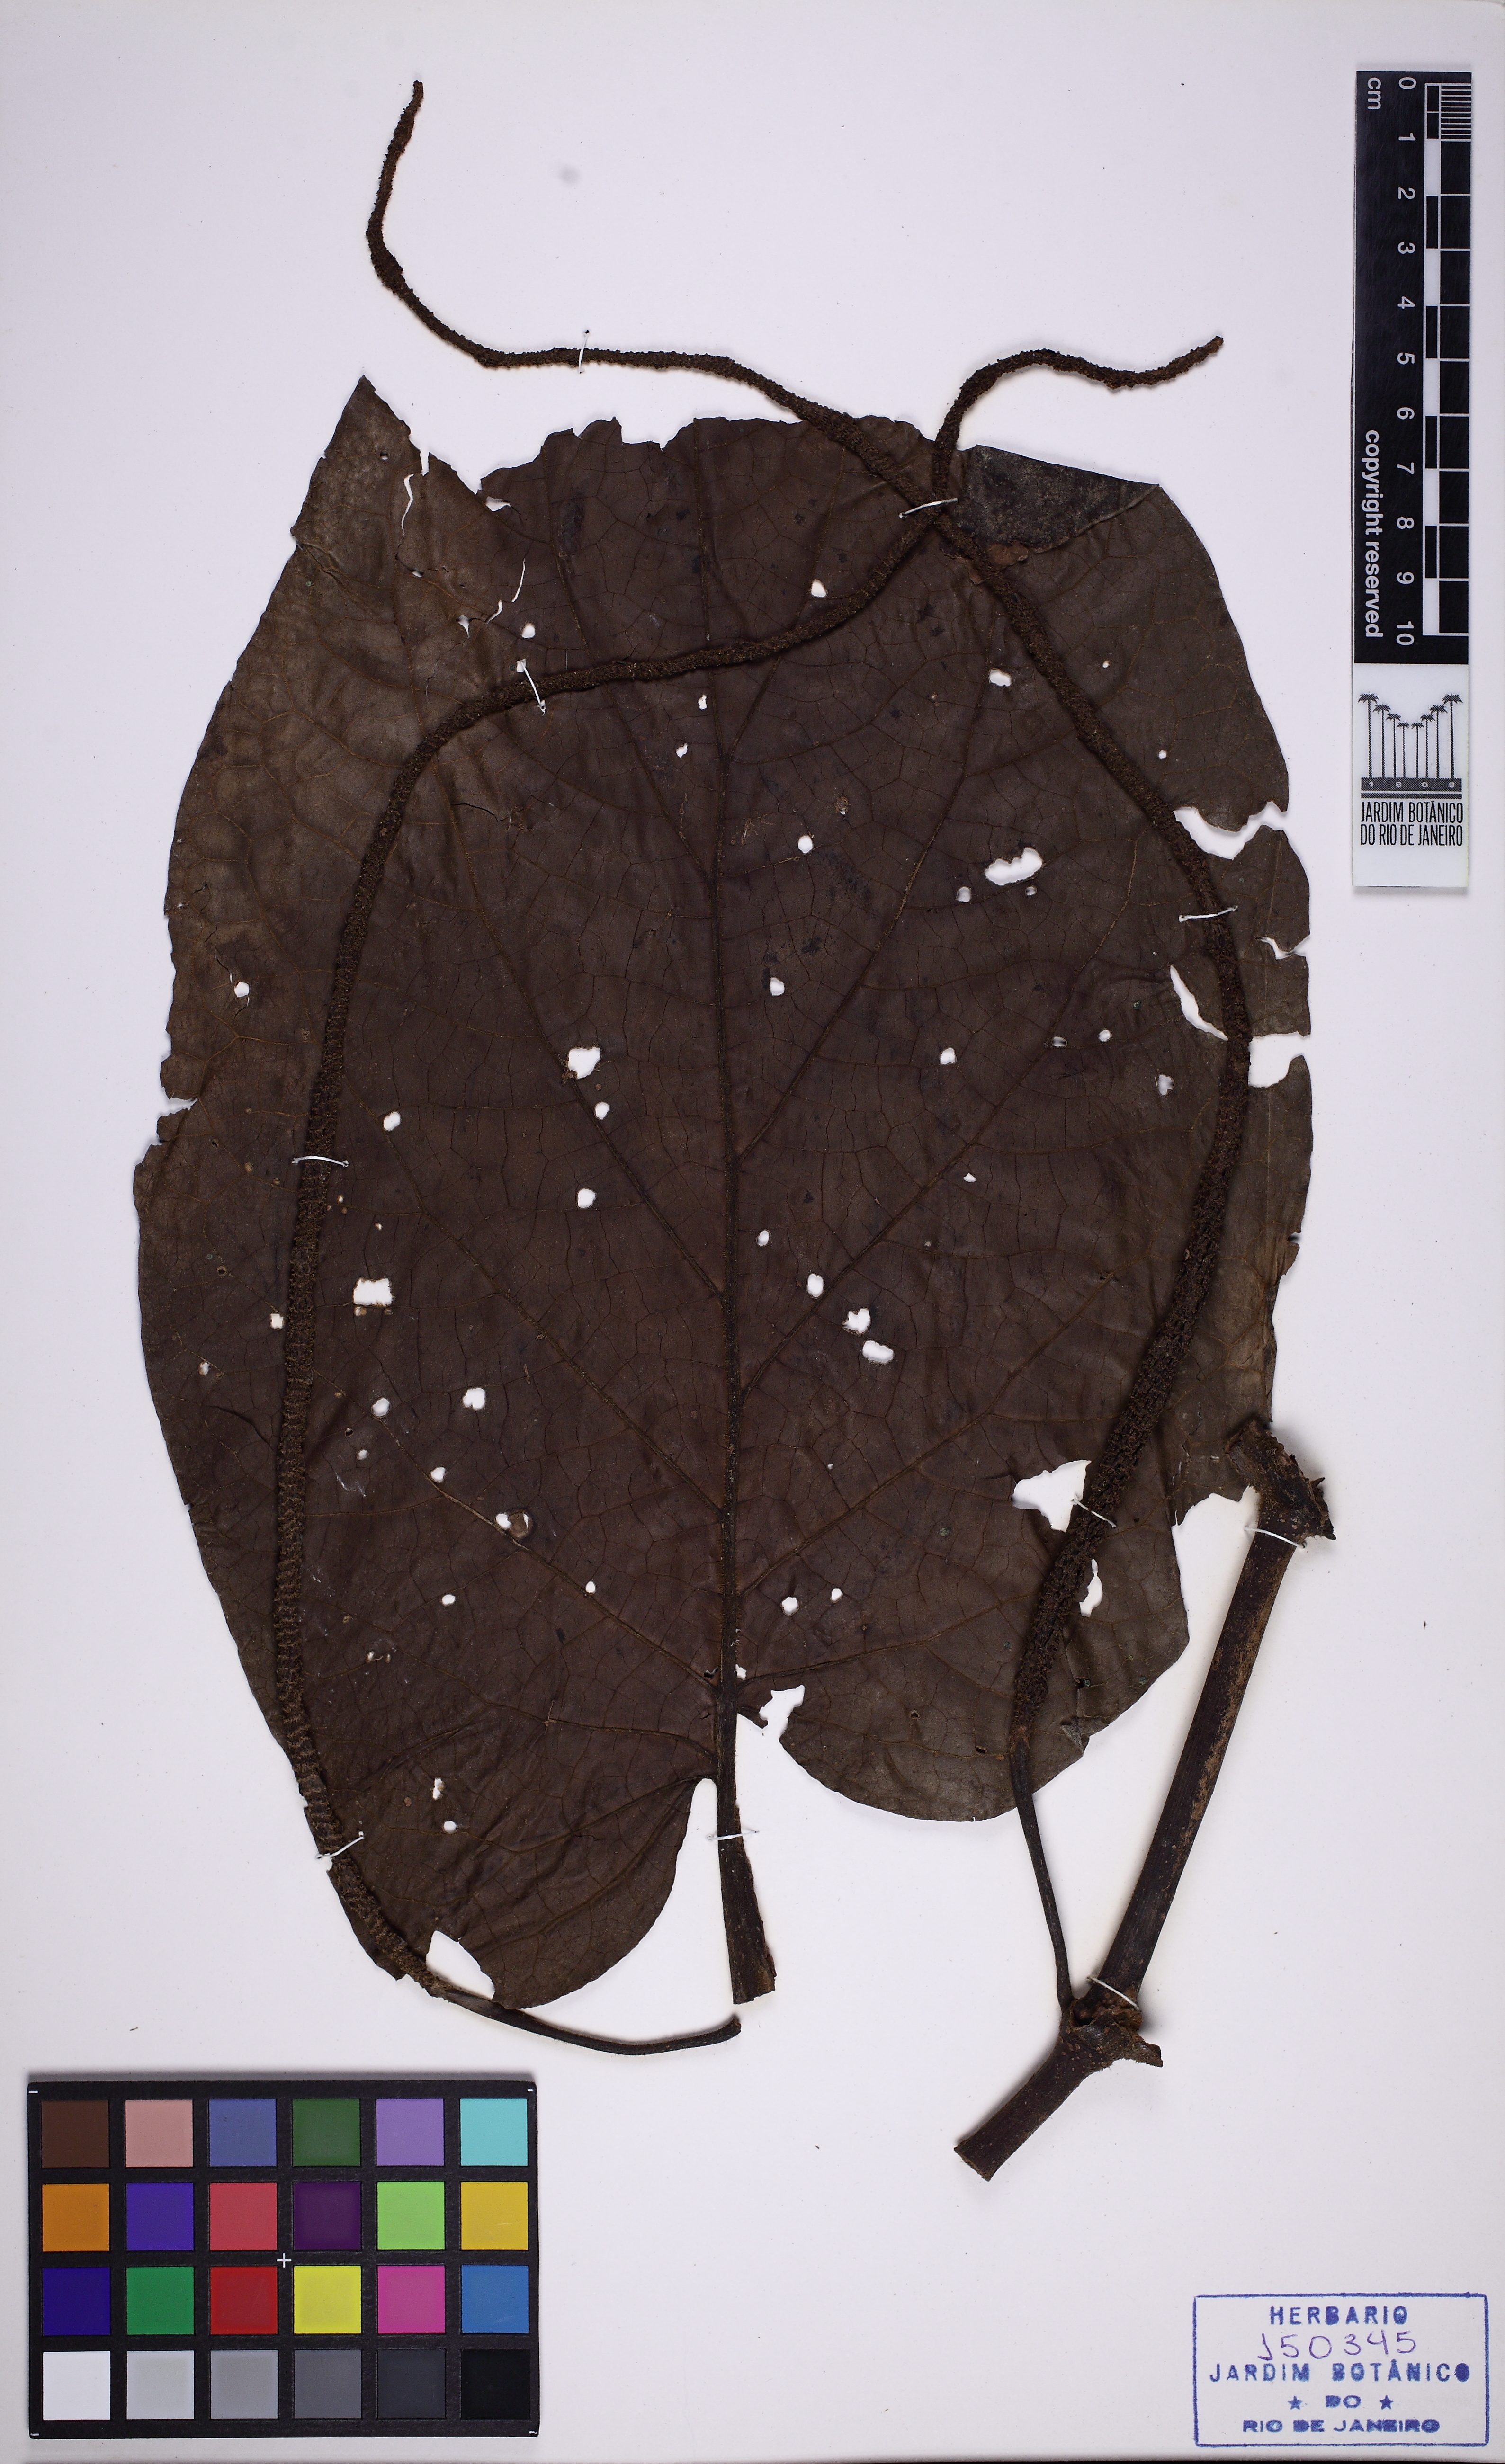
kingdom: Plantae
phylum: Tracheophyta
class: Magnoliopsida
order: Piperales
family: Piperaceae
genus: Piper
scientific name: Piper cernuum
